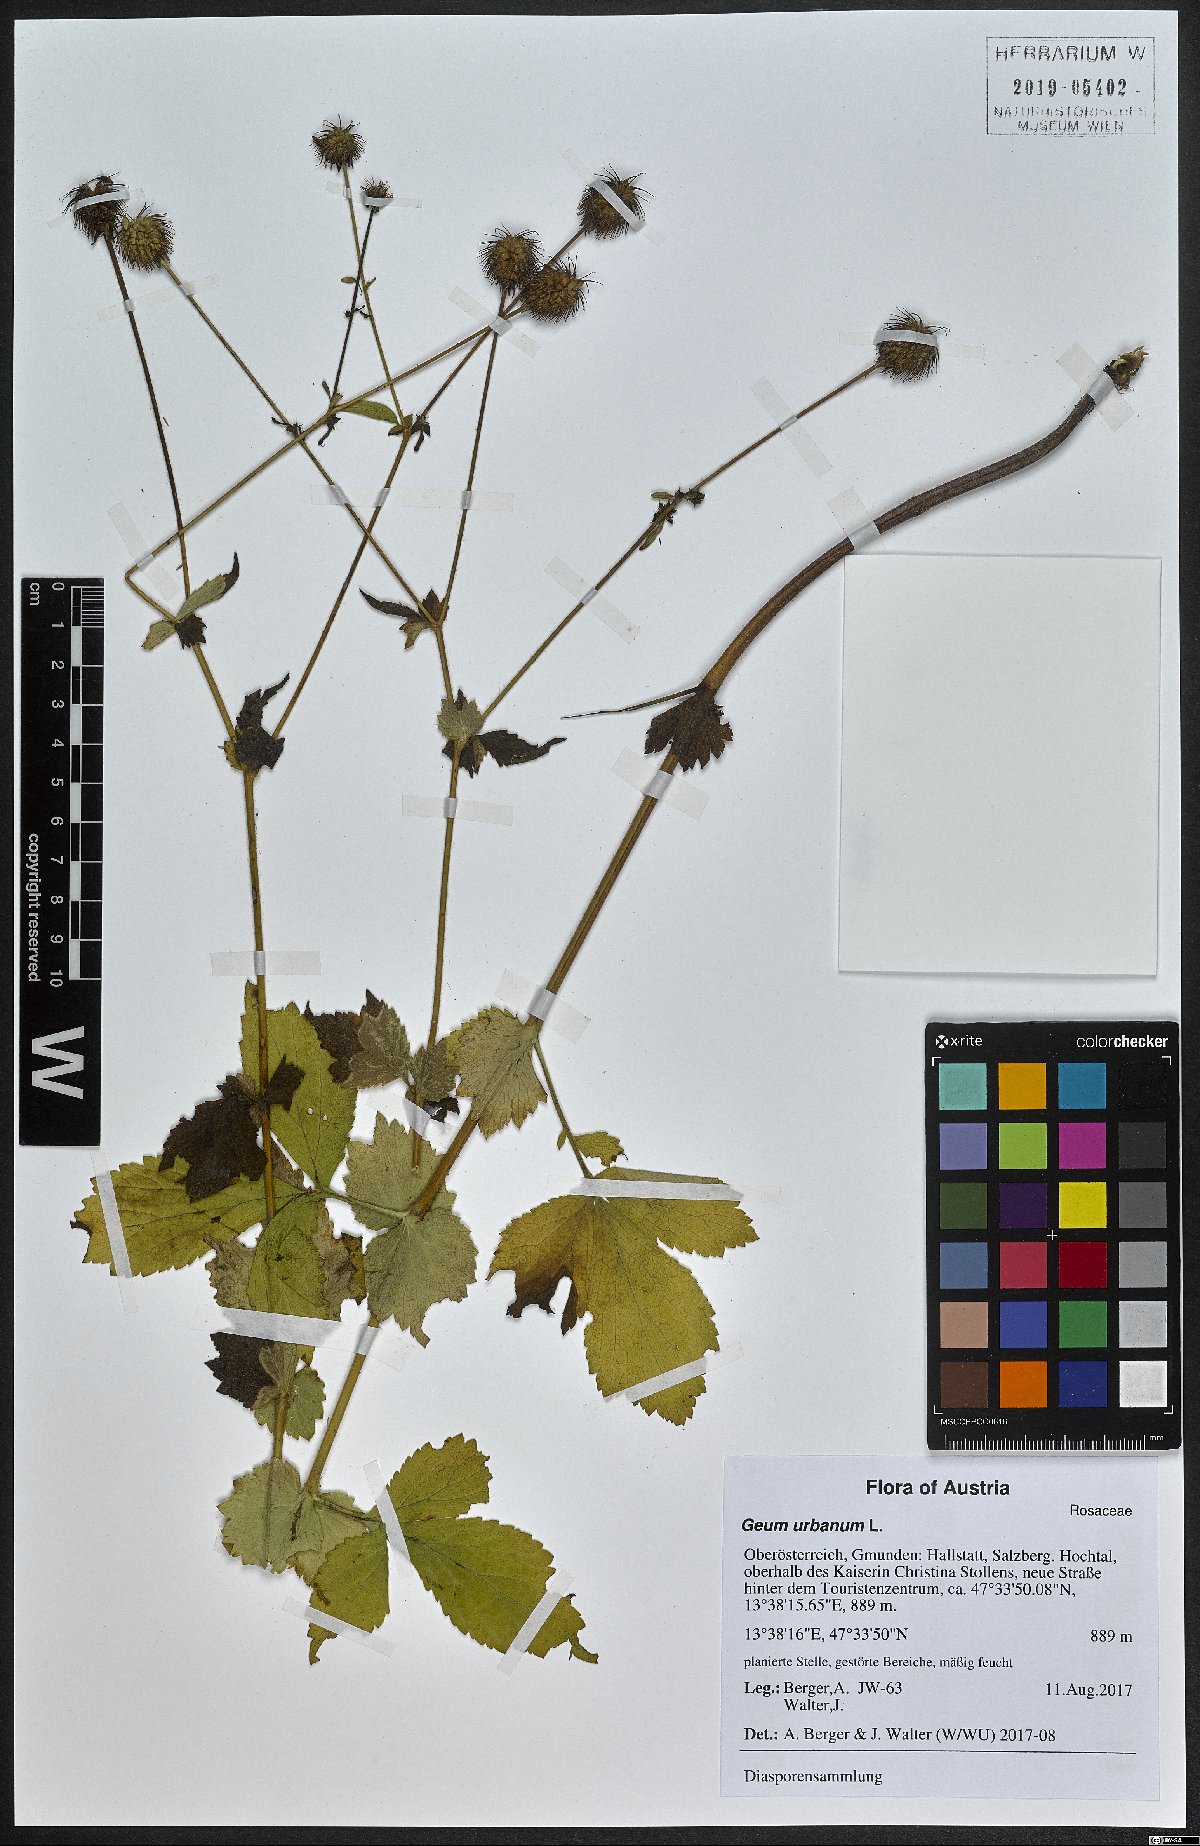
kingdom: Plantae
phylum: Tracheophyta
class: Magnoliopsida
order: Rosales
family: Rosaceae
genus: Geum
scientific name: Geum urbanum
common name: Wood avens
